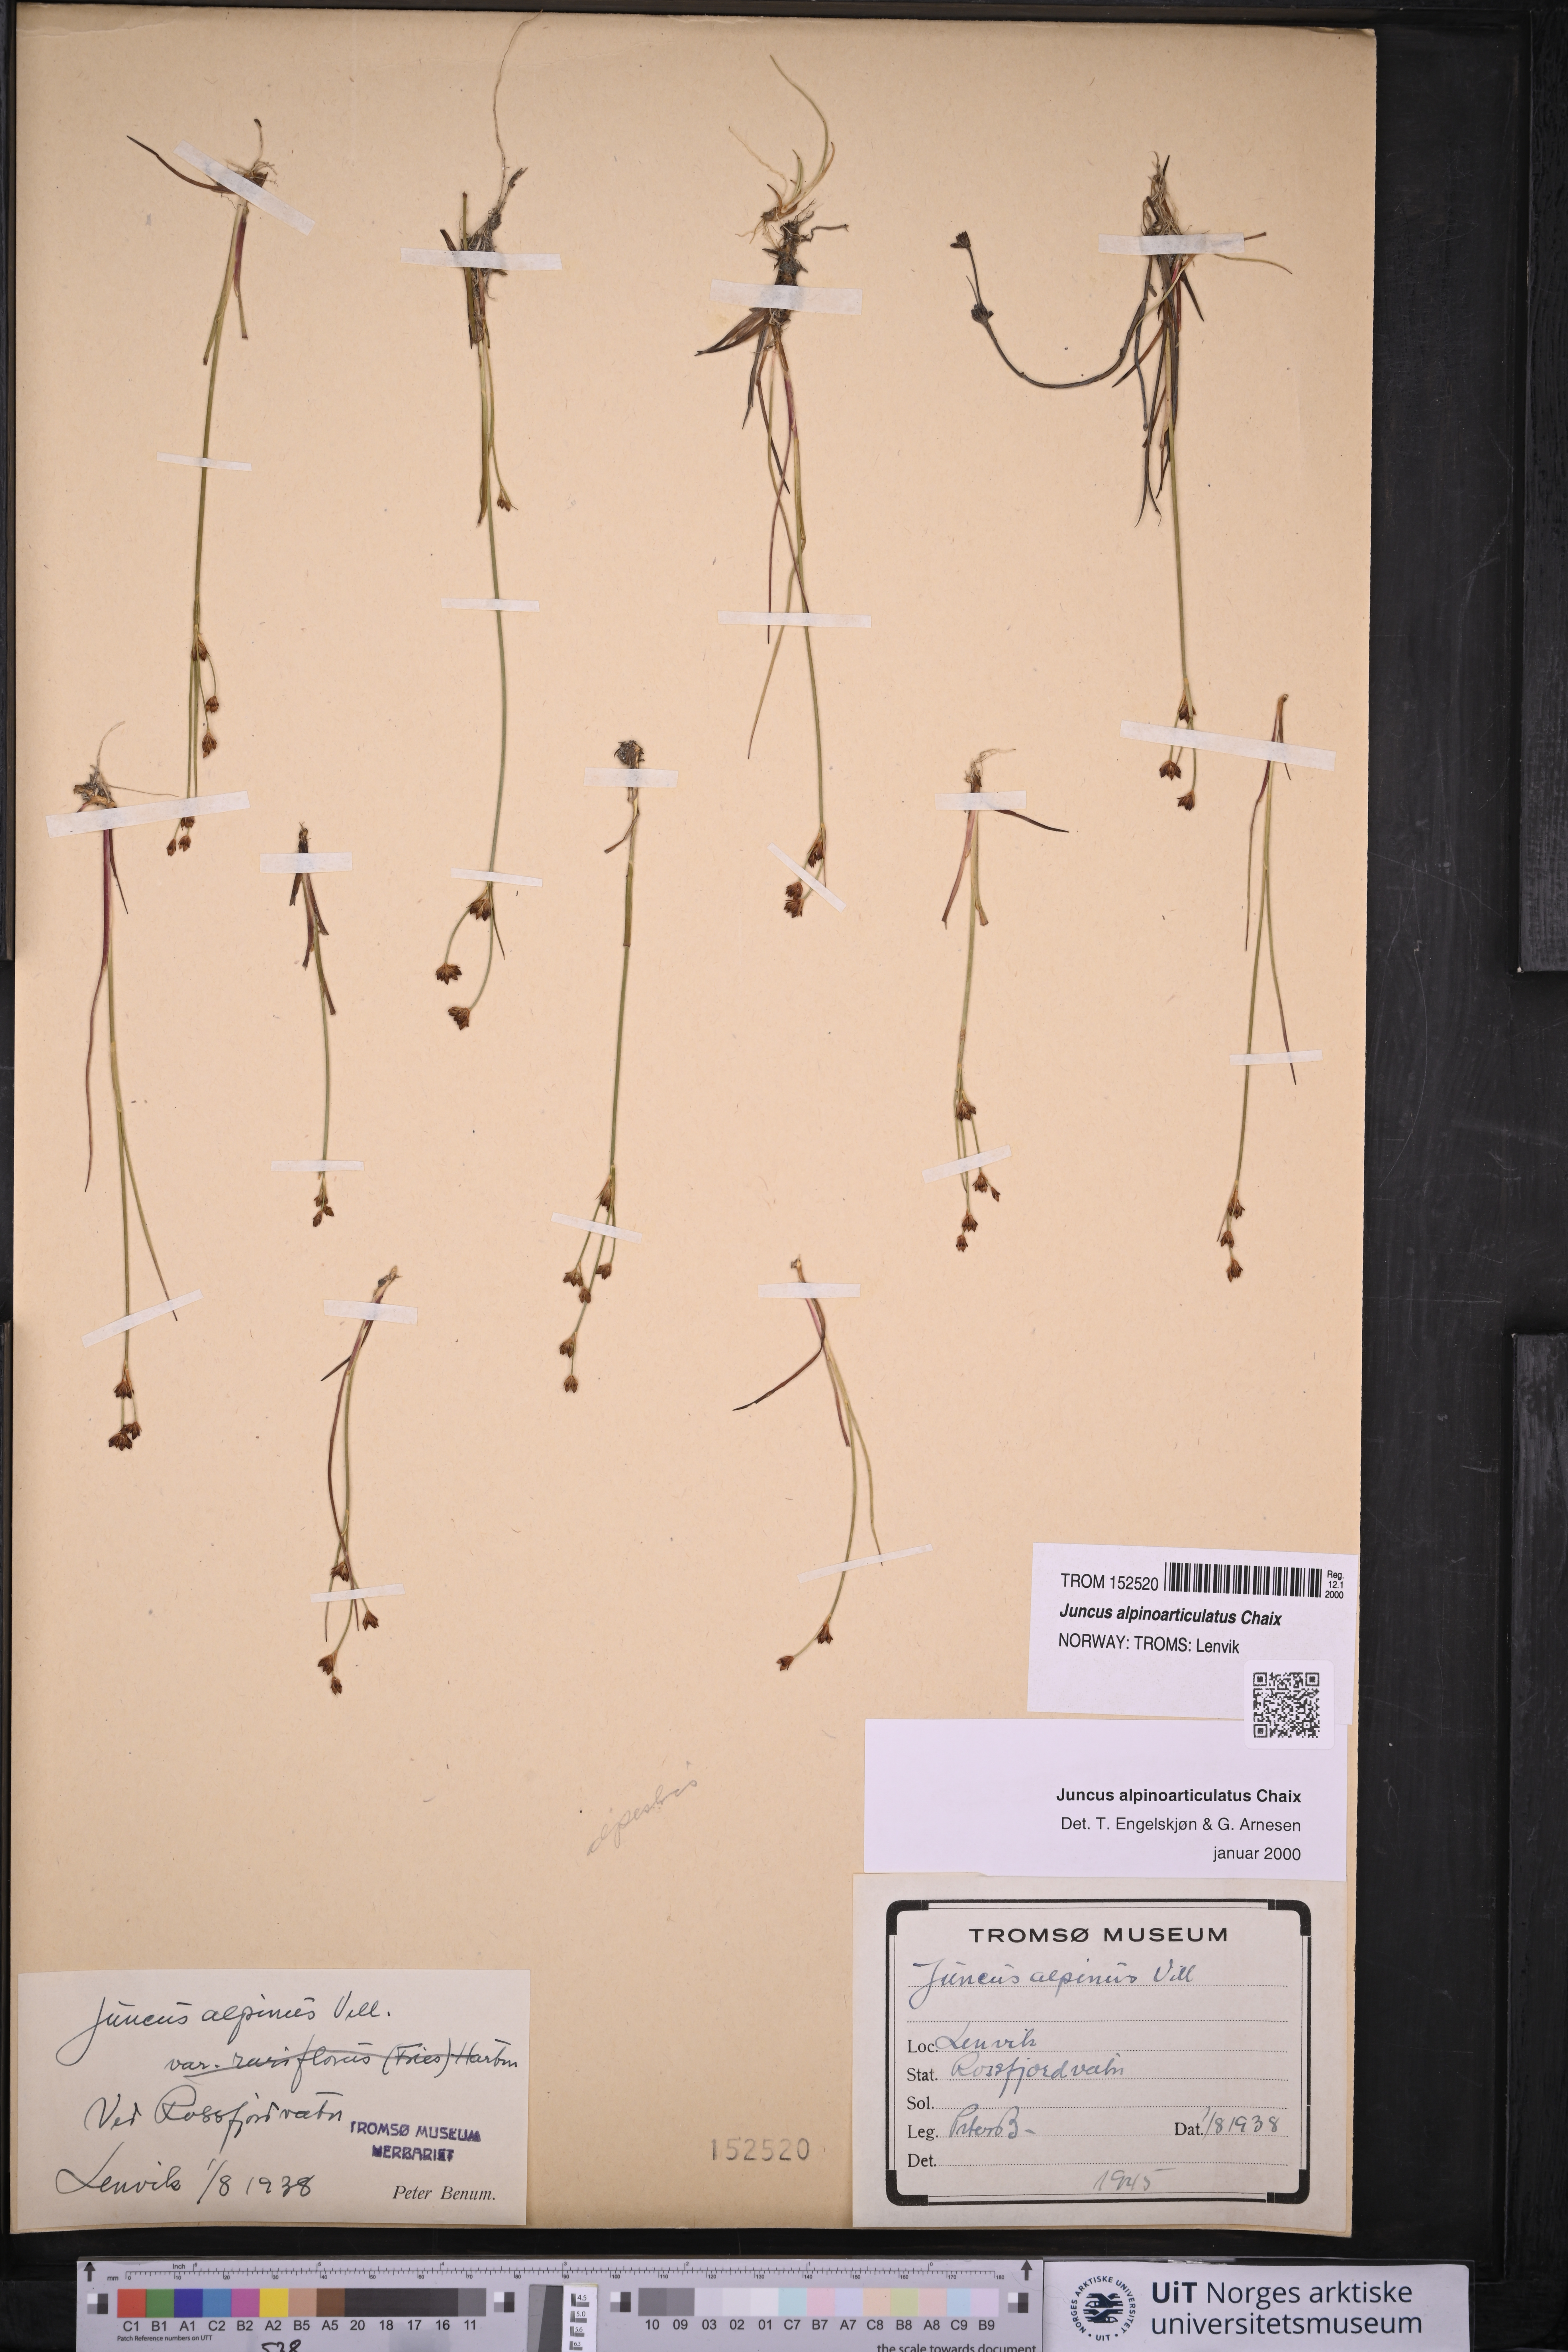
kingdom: Plantae
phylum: Tracheophyta
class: Liliopsida
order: Poales
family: Juncaceae
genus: Juncus
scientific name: Juncus alpinoarticulatus
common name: Alpine rush
